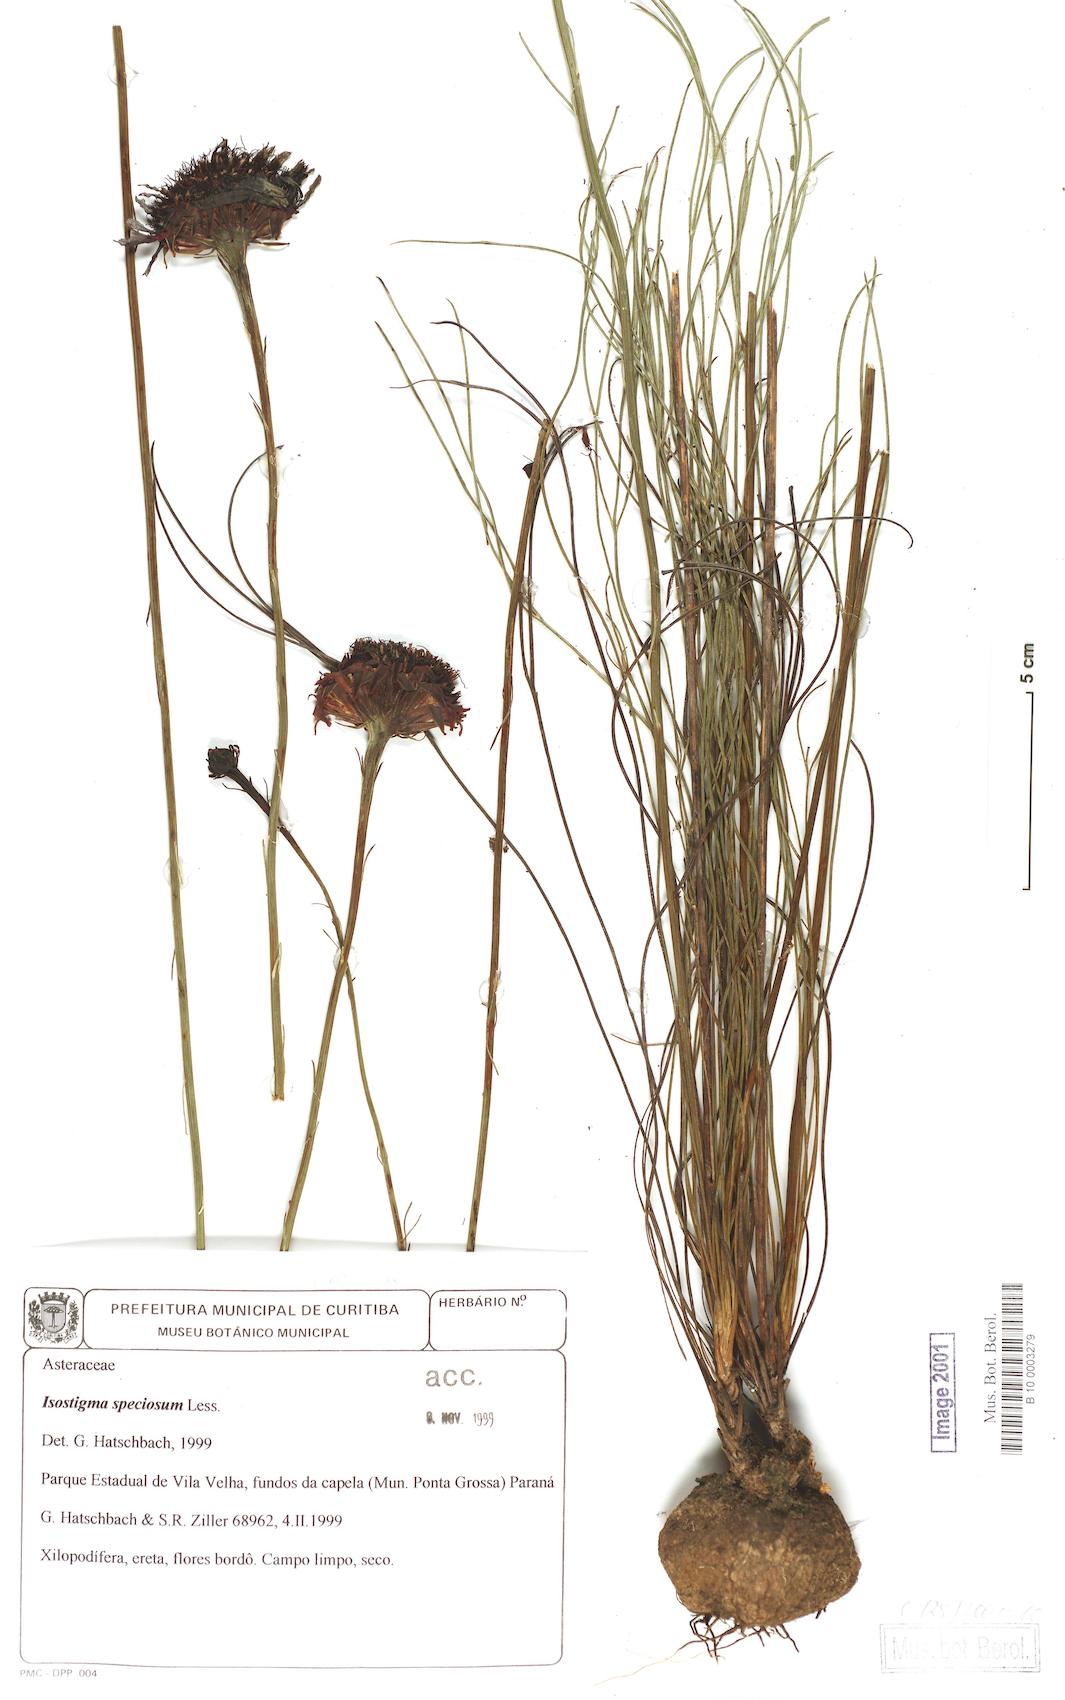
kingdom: Plantae
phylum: Tracheophyta
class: Magnoliopsida
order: Asterales
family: Asteraceae
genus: Isostigma
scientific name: Isostigma peucedanifolium
